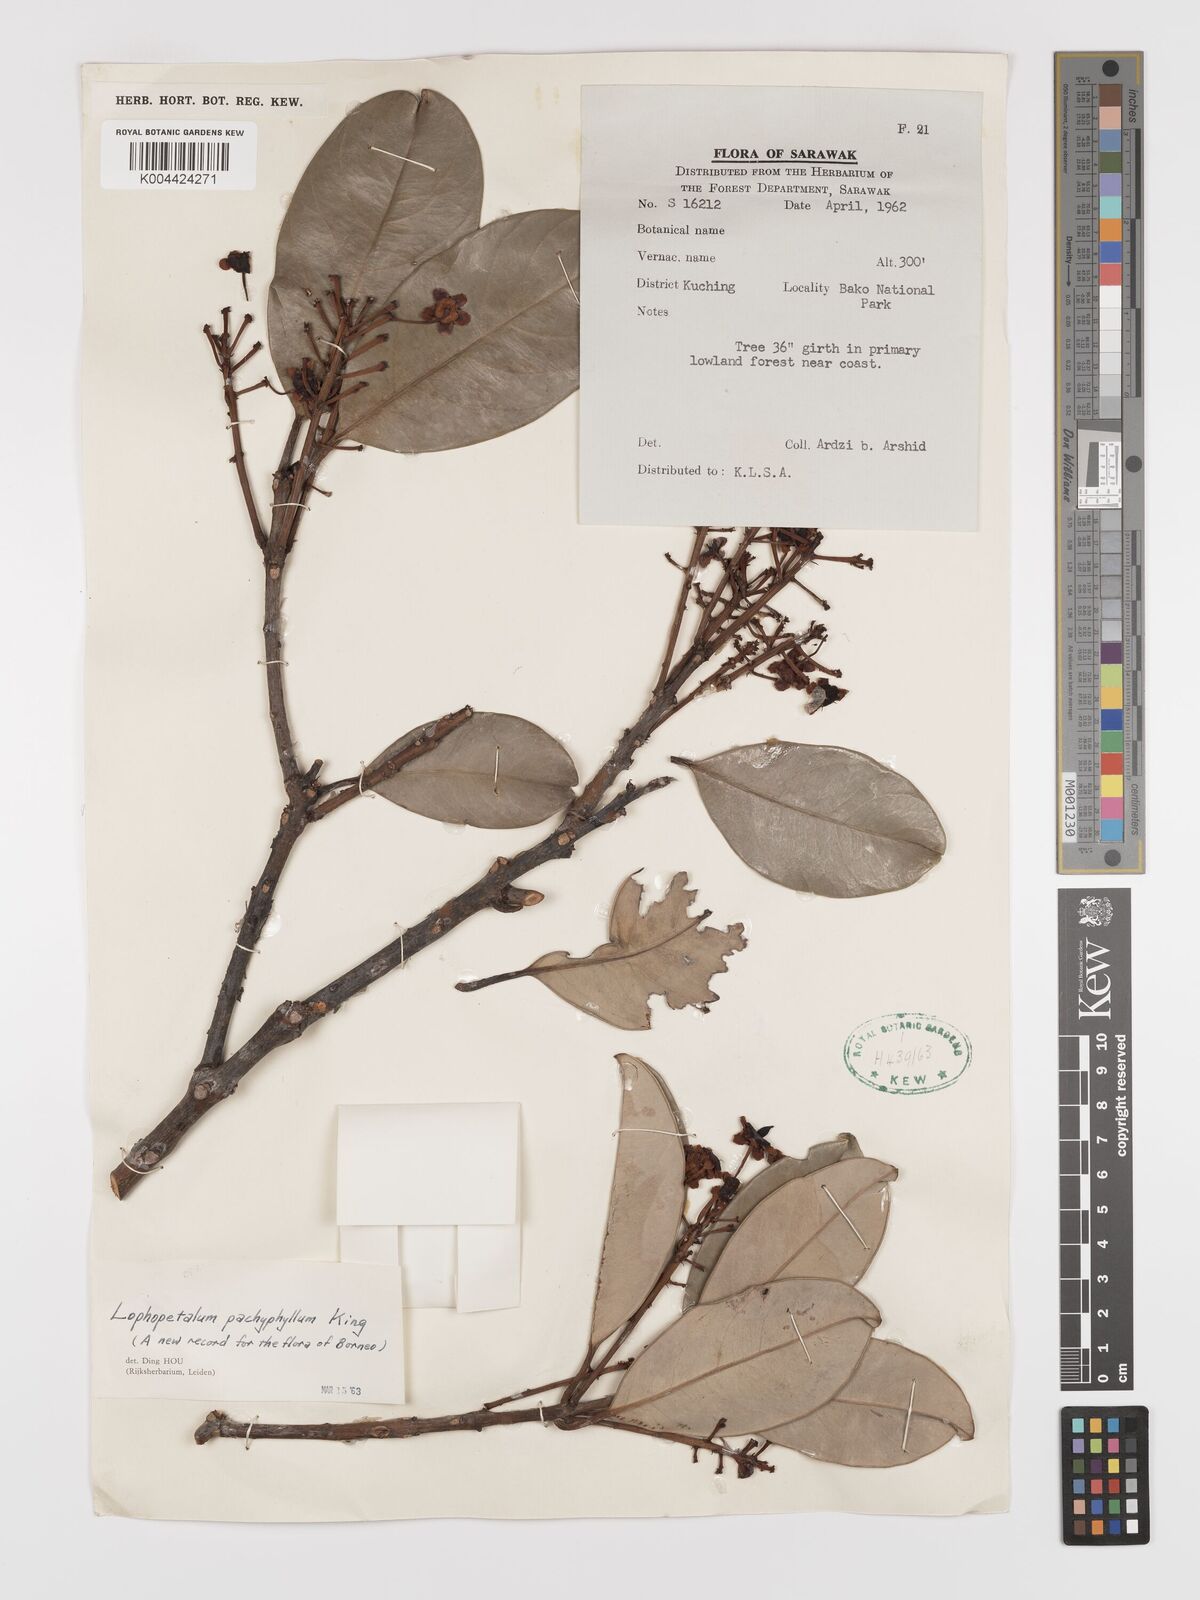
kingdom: Plantae
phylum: Tracheophyta
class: Magnoliopsida
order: Celastrales
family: Celastraceae
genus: Lophopetalum
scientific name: Lophopetalum pachyphyllum
